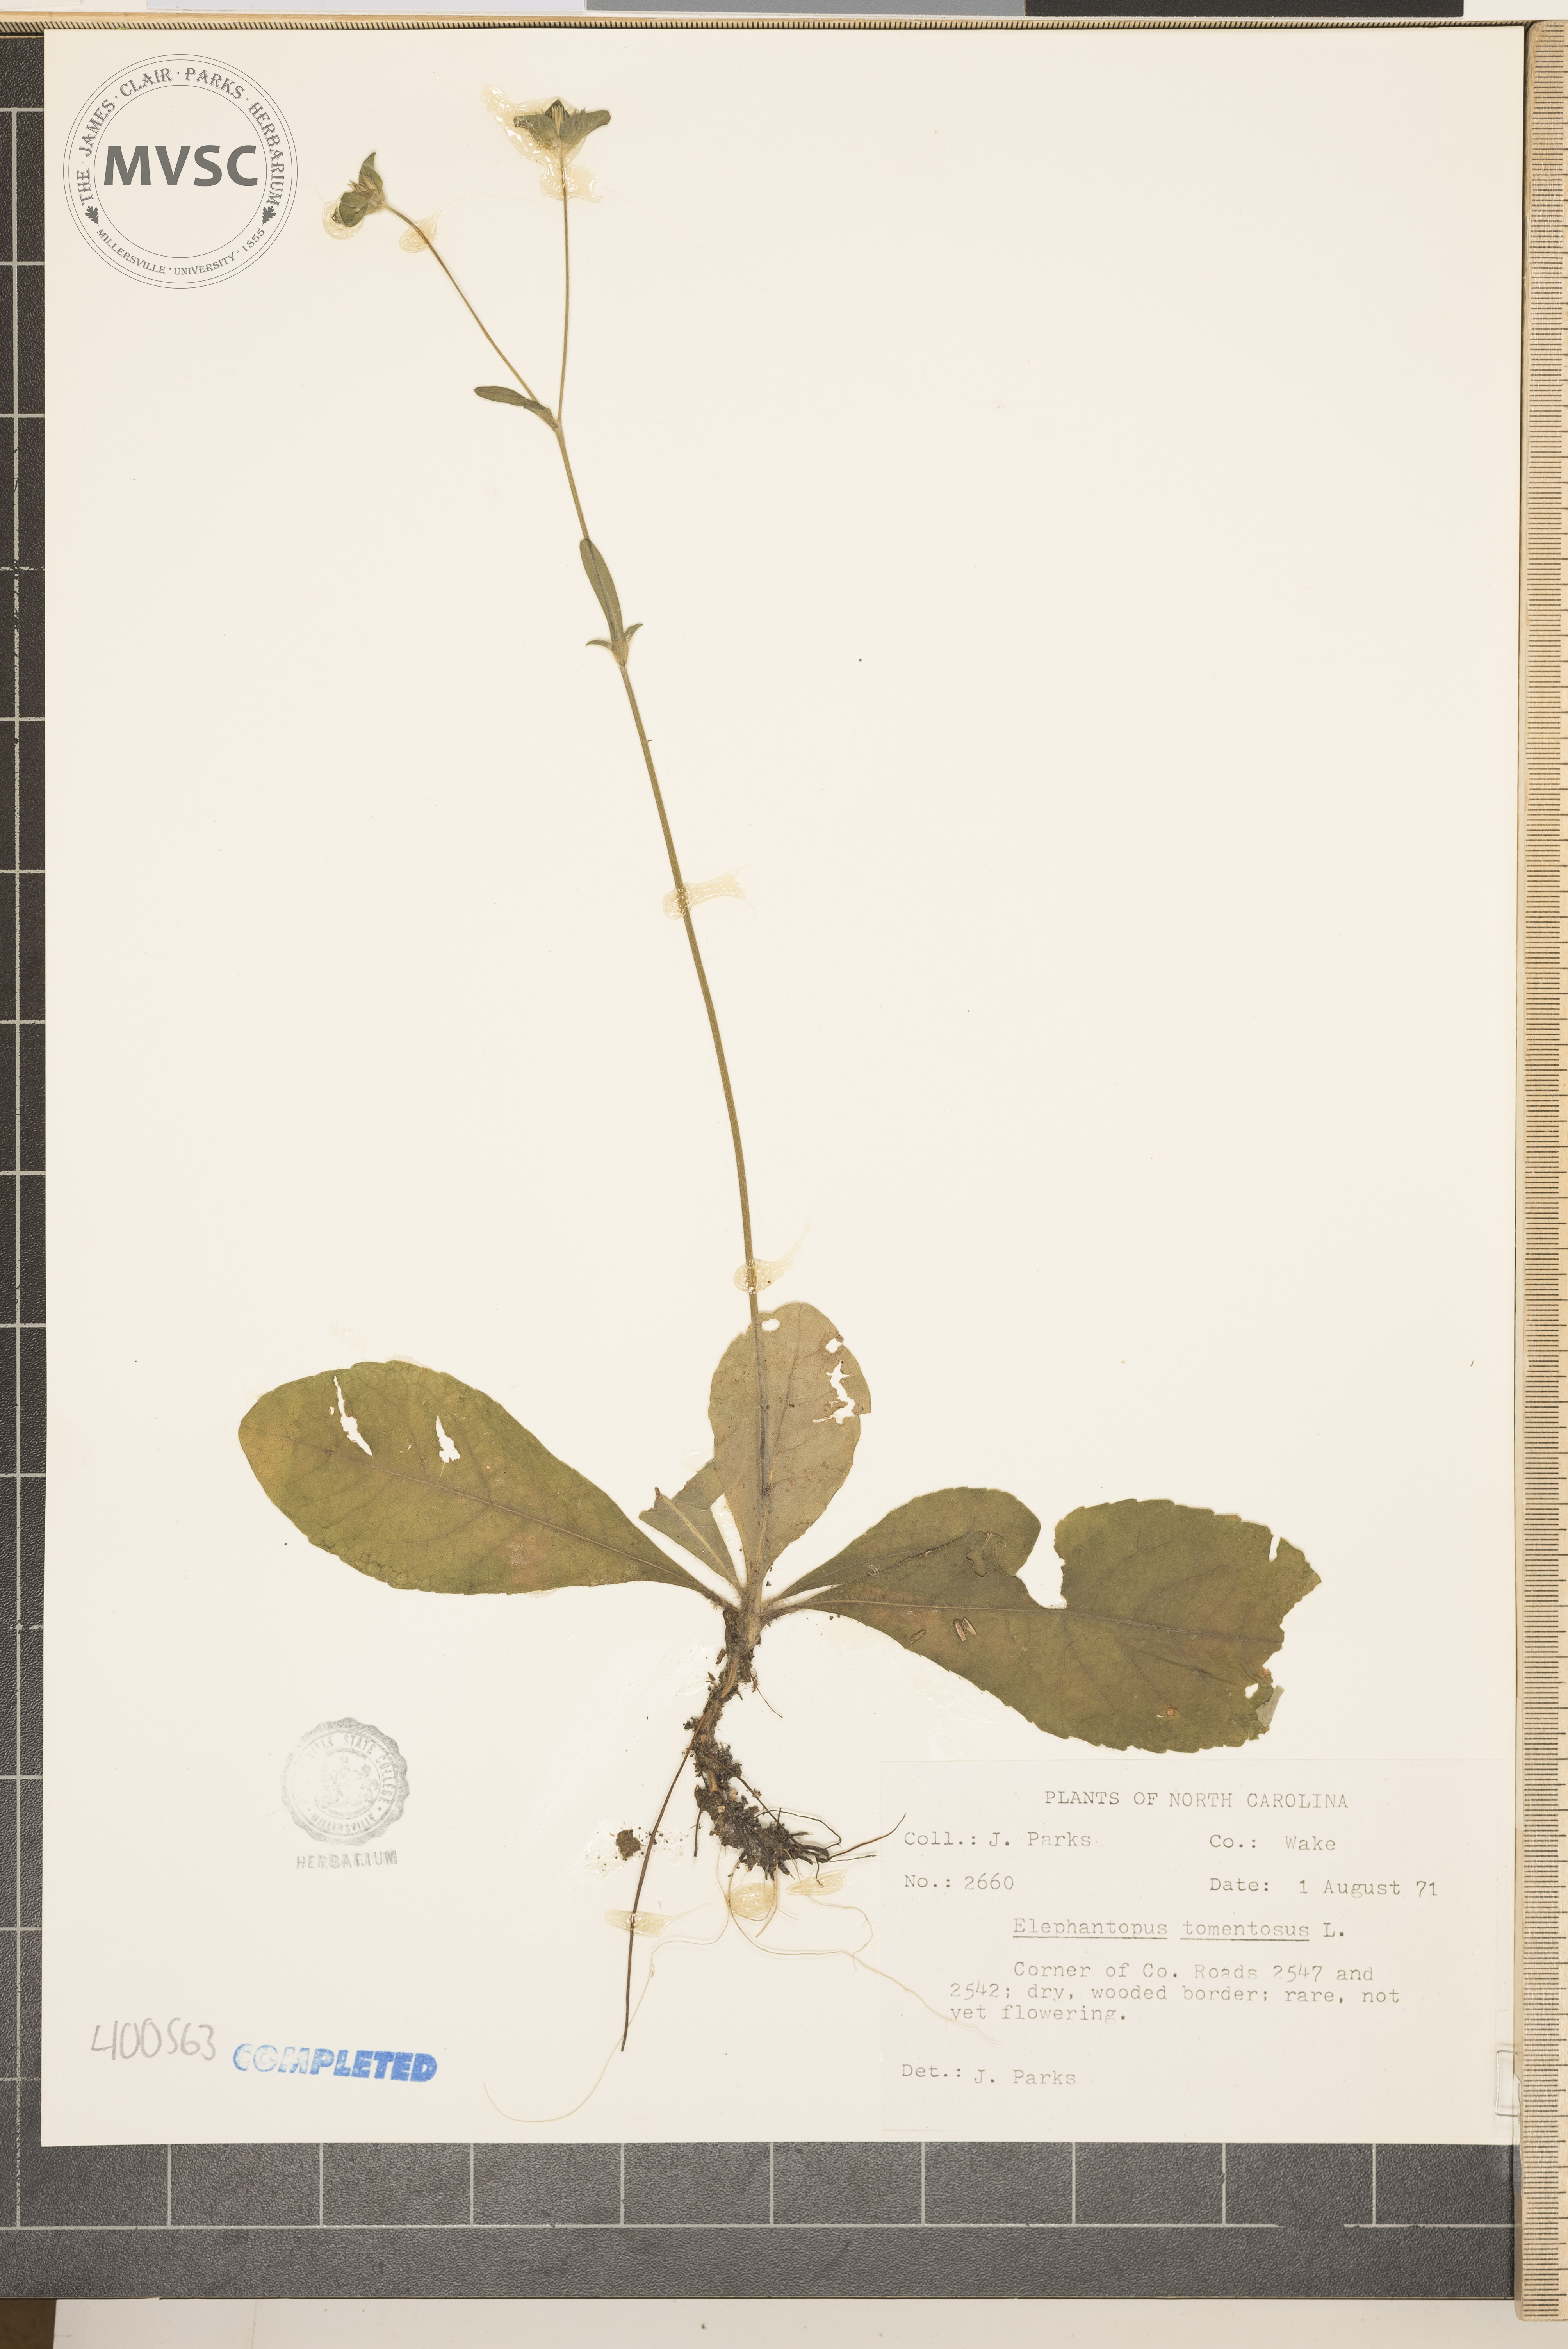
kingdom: Plantae
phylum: Tracheophyta
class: Magnoliopsida
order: Asterales
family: Asteraceae
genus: Elephantopus
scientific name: Elephantopus tomentosus
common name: Tobacco-weed
